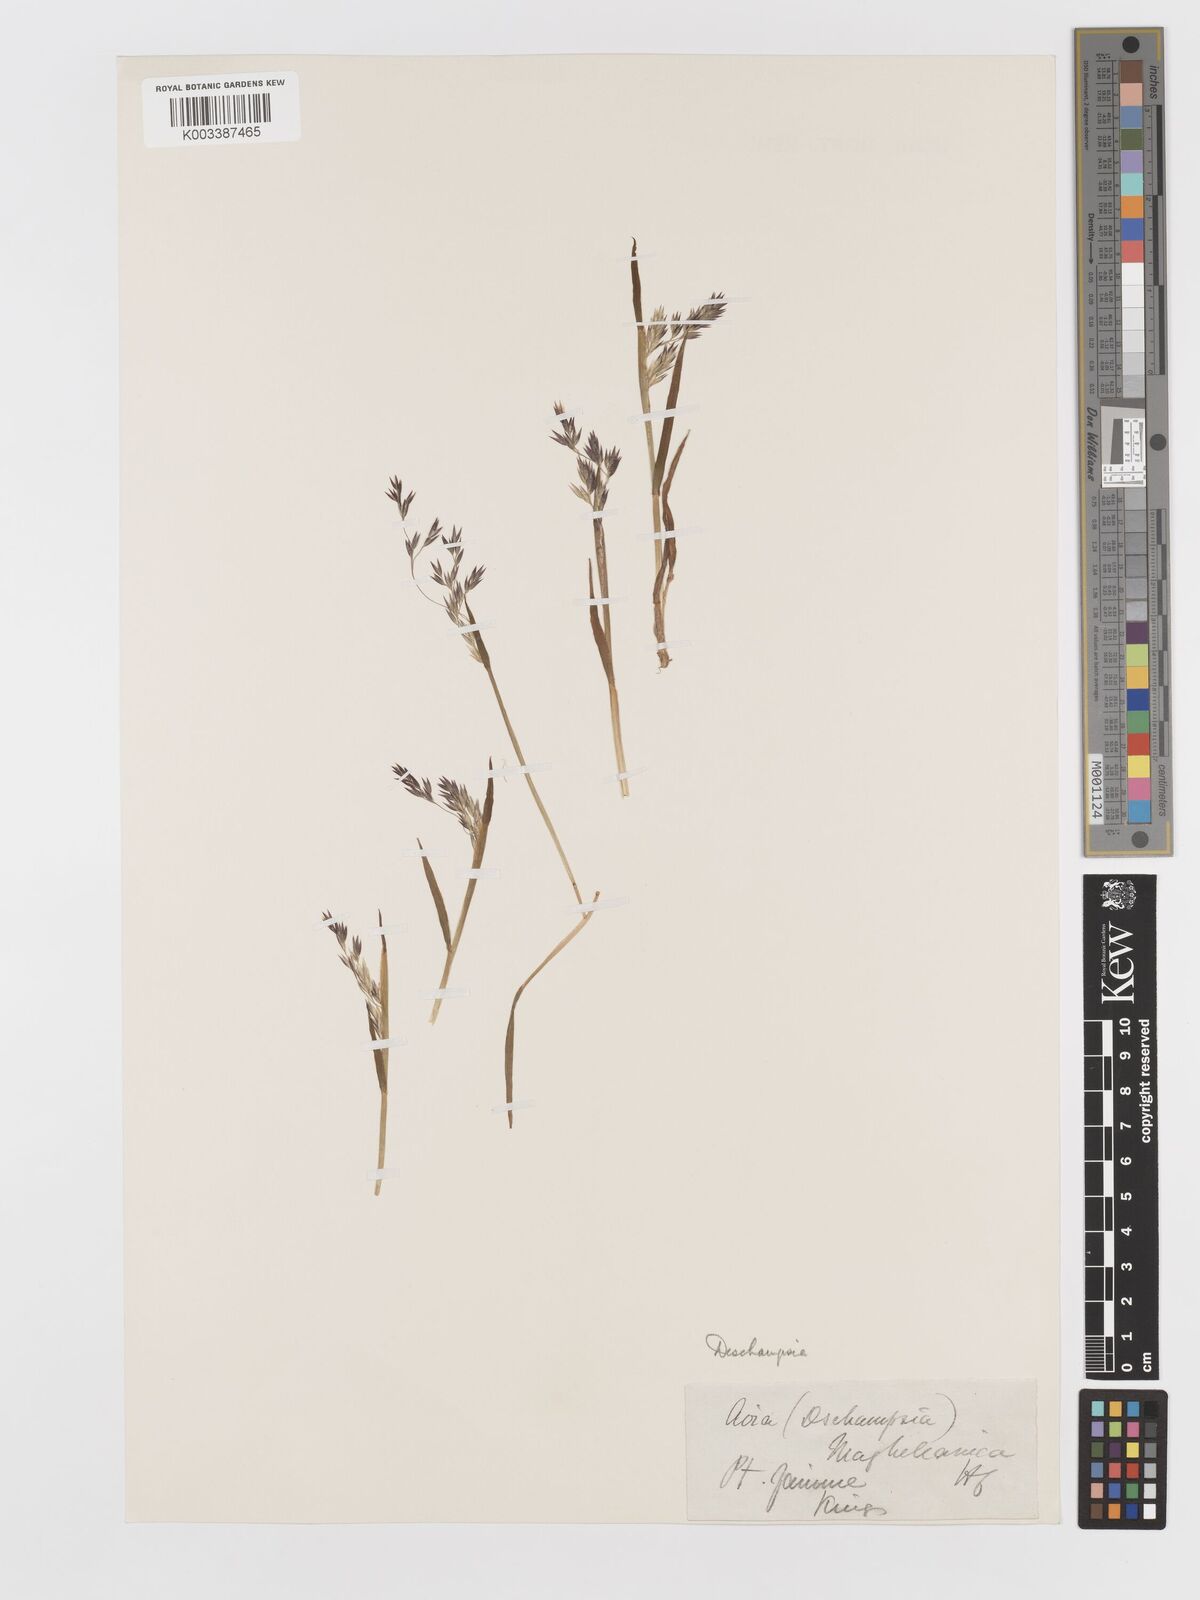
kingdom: Plantae
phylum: Tracheophyta
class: Liliopsida
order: Poales
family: Poaceae
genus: Vahlodea
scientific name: Vahlodea atropurpurea
